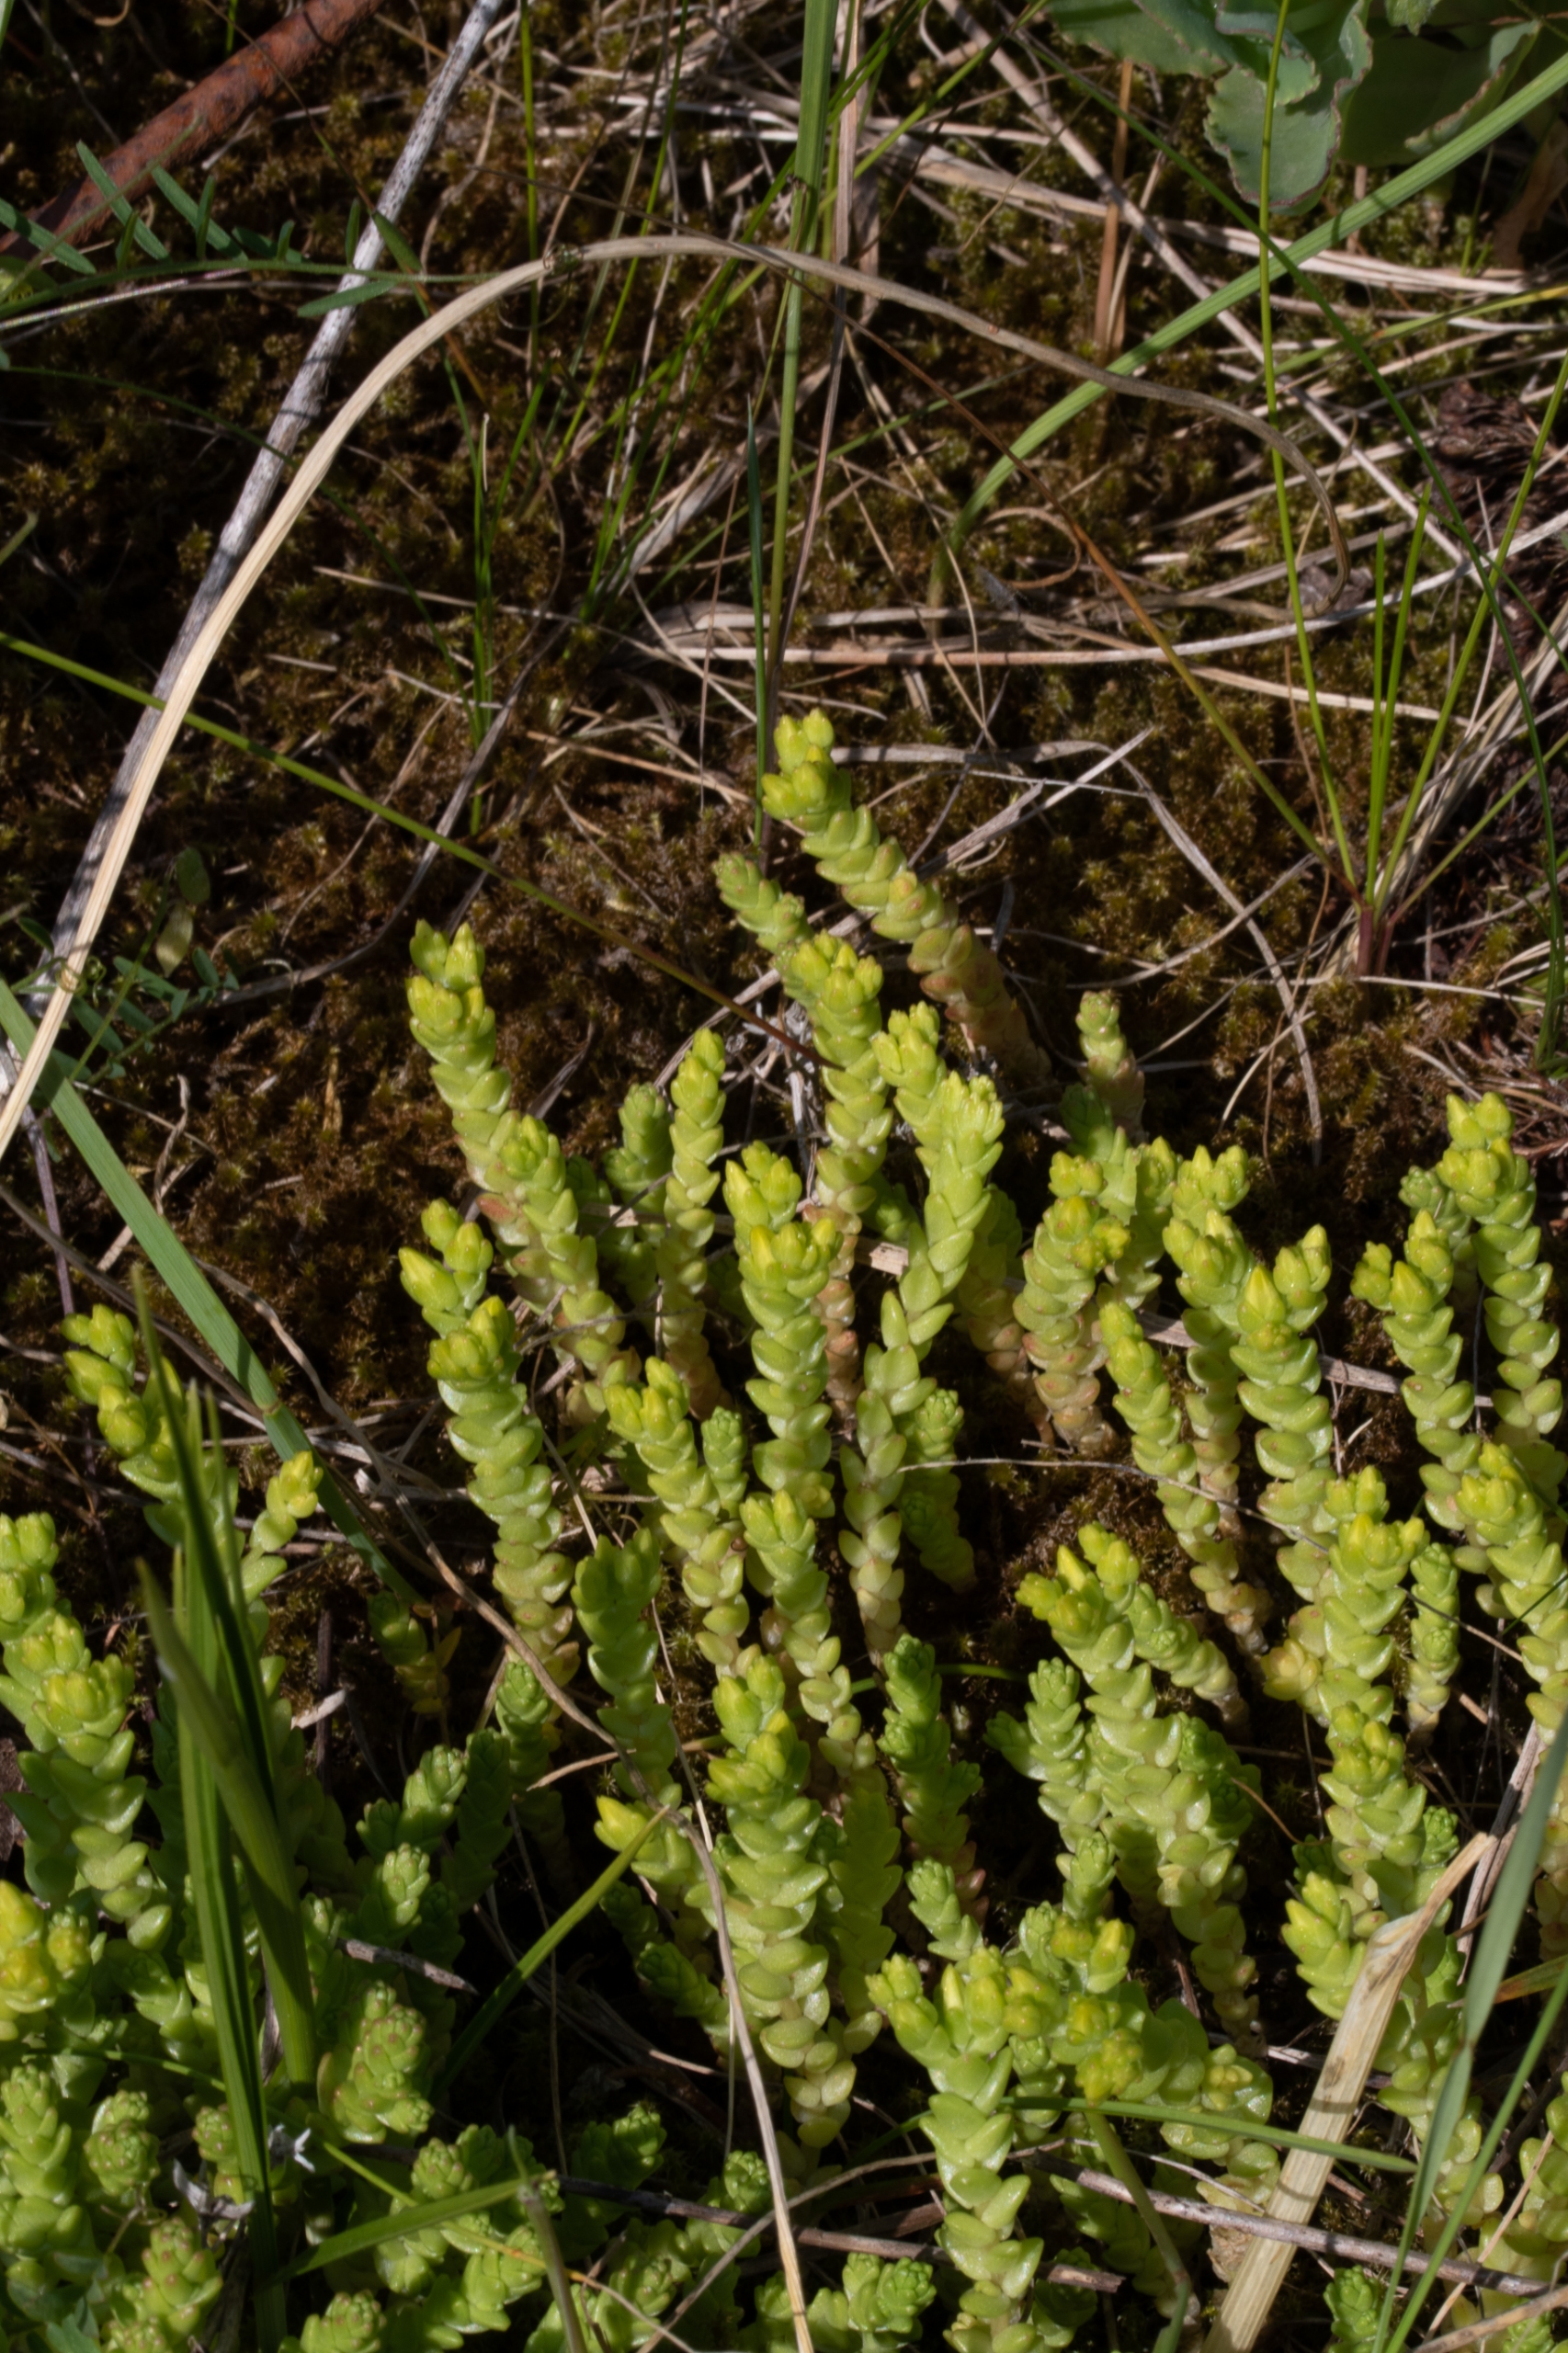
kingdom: Plantae
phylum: Tracheophyta
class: Magnoliopsida
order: Saxifragales
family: Crassulaceae
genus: Sedum
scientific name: Sedum acre
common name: Bidende stenurt
